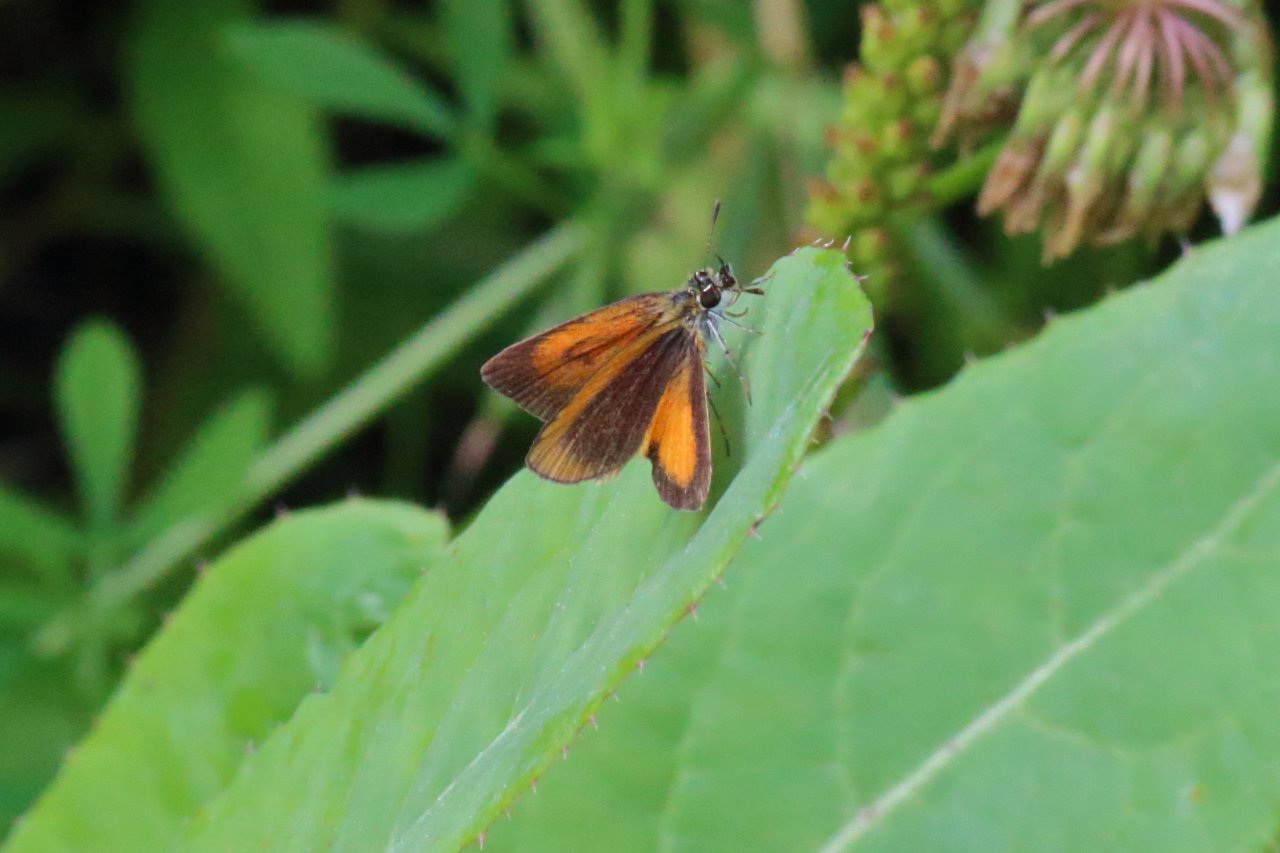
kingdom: Animalia
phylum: Arthropoda
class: Insecta
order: Lepidoptera
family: Hesperiidae
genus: Ancyloxypha
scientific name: Ancyloxypha numitor
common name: Least Skipper
